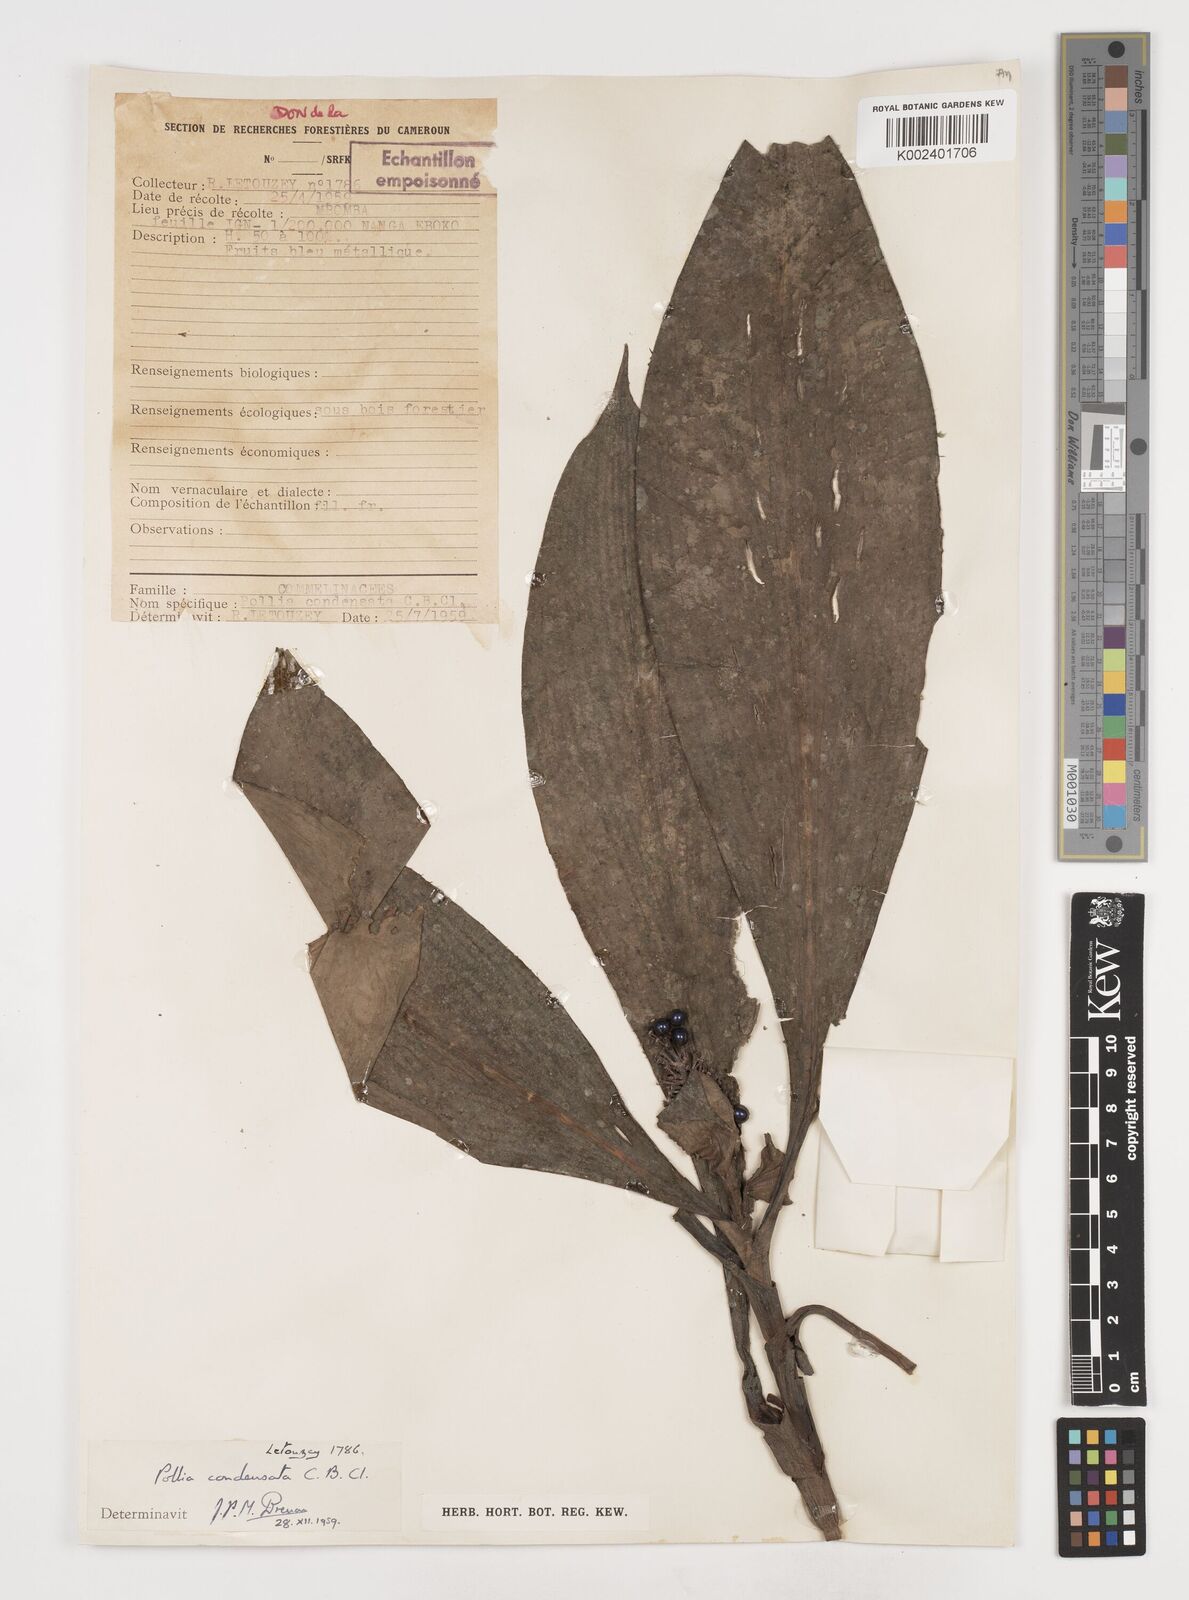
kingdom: Plantae
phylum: Tracheophyta
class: Liliopsida
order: Commelinales
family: Commelinaceae
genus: Pollia
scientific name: Pollia condensata
